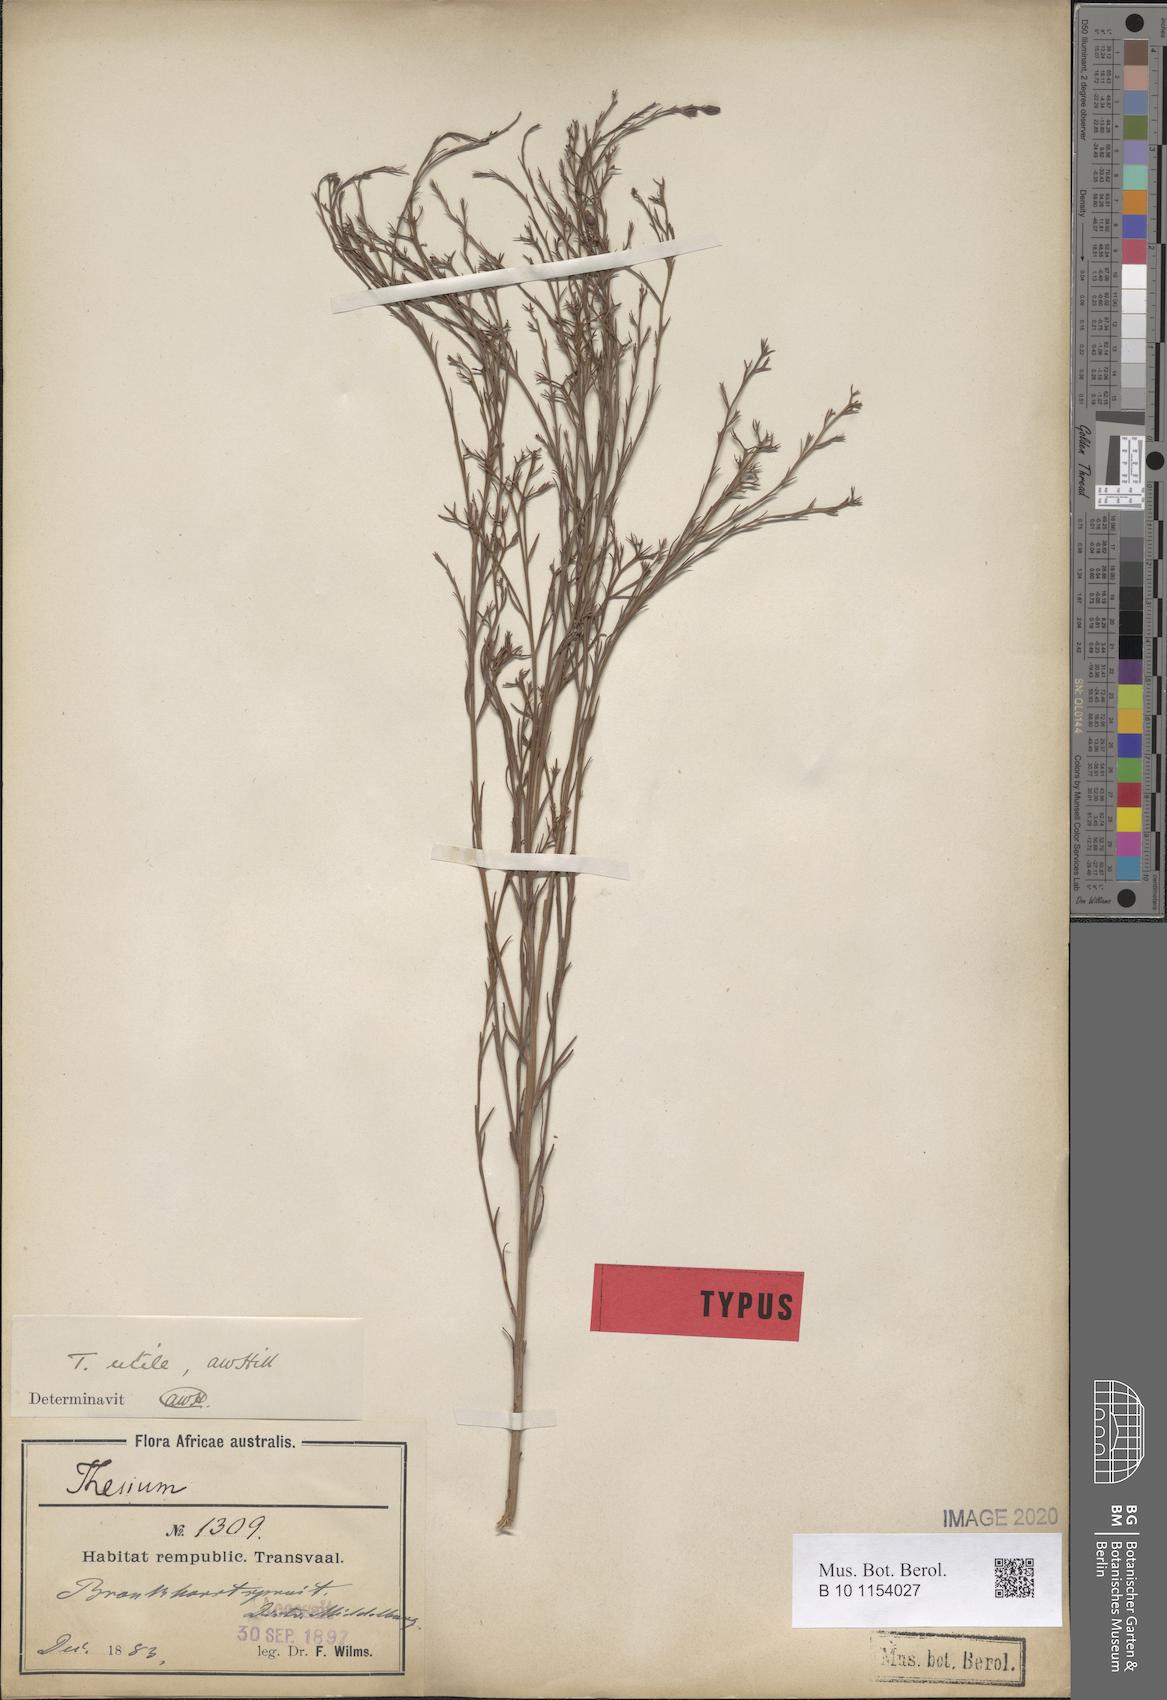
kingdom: Plantae
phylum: Tracheophyta
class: Magnoliopsida
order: Santalales
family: Thesiaceae
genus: Thesium
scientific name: Thesium utile
